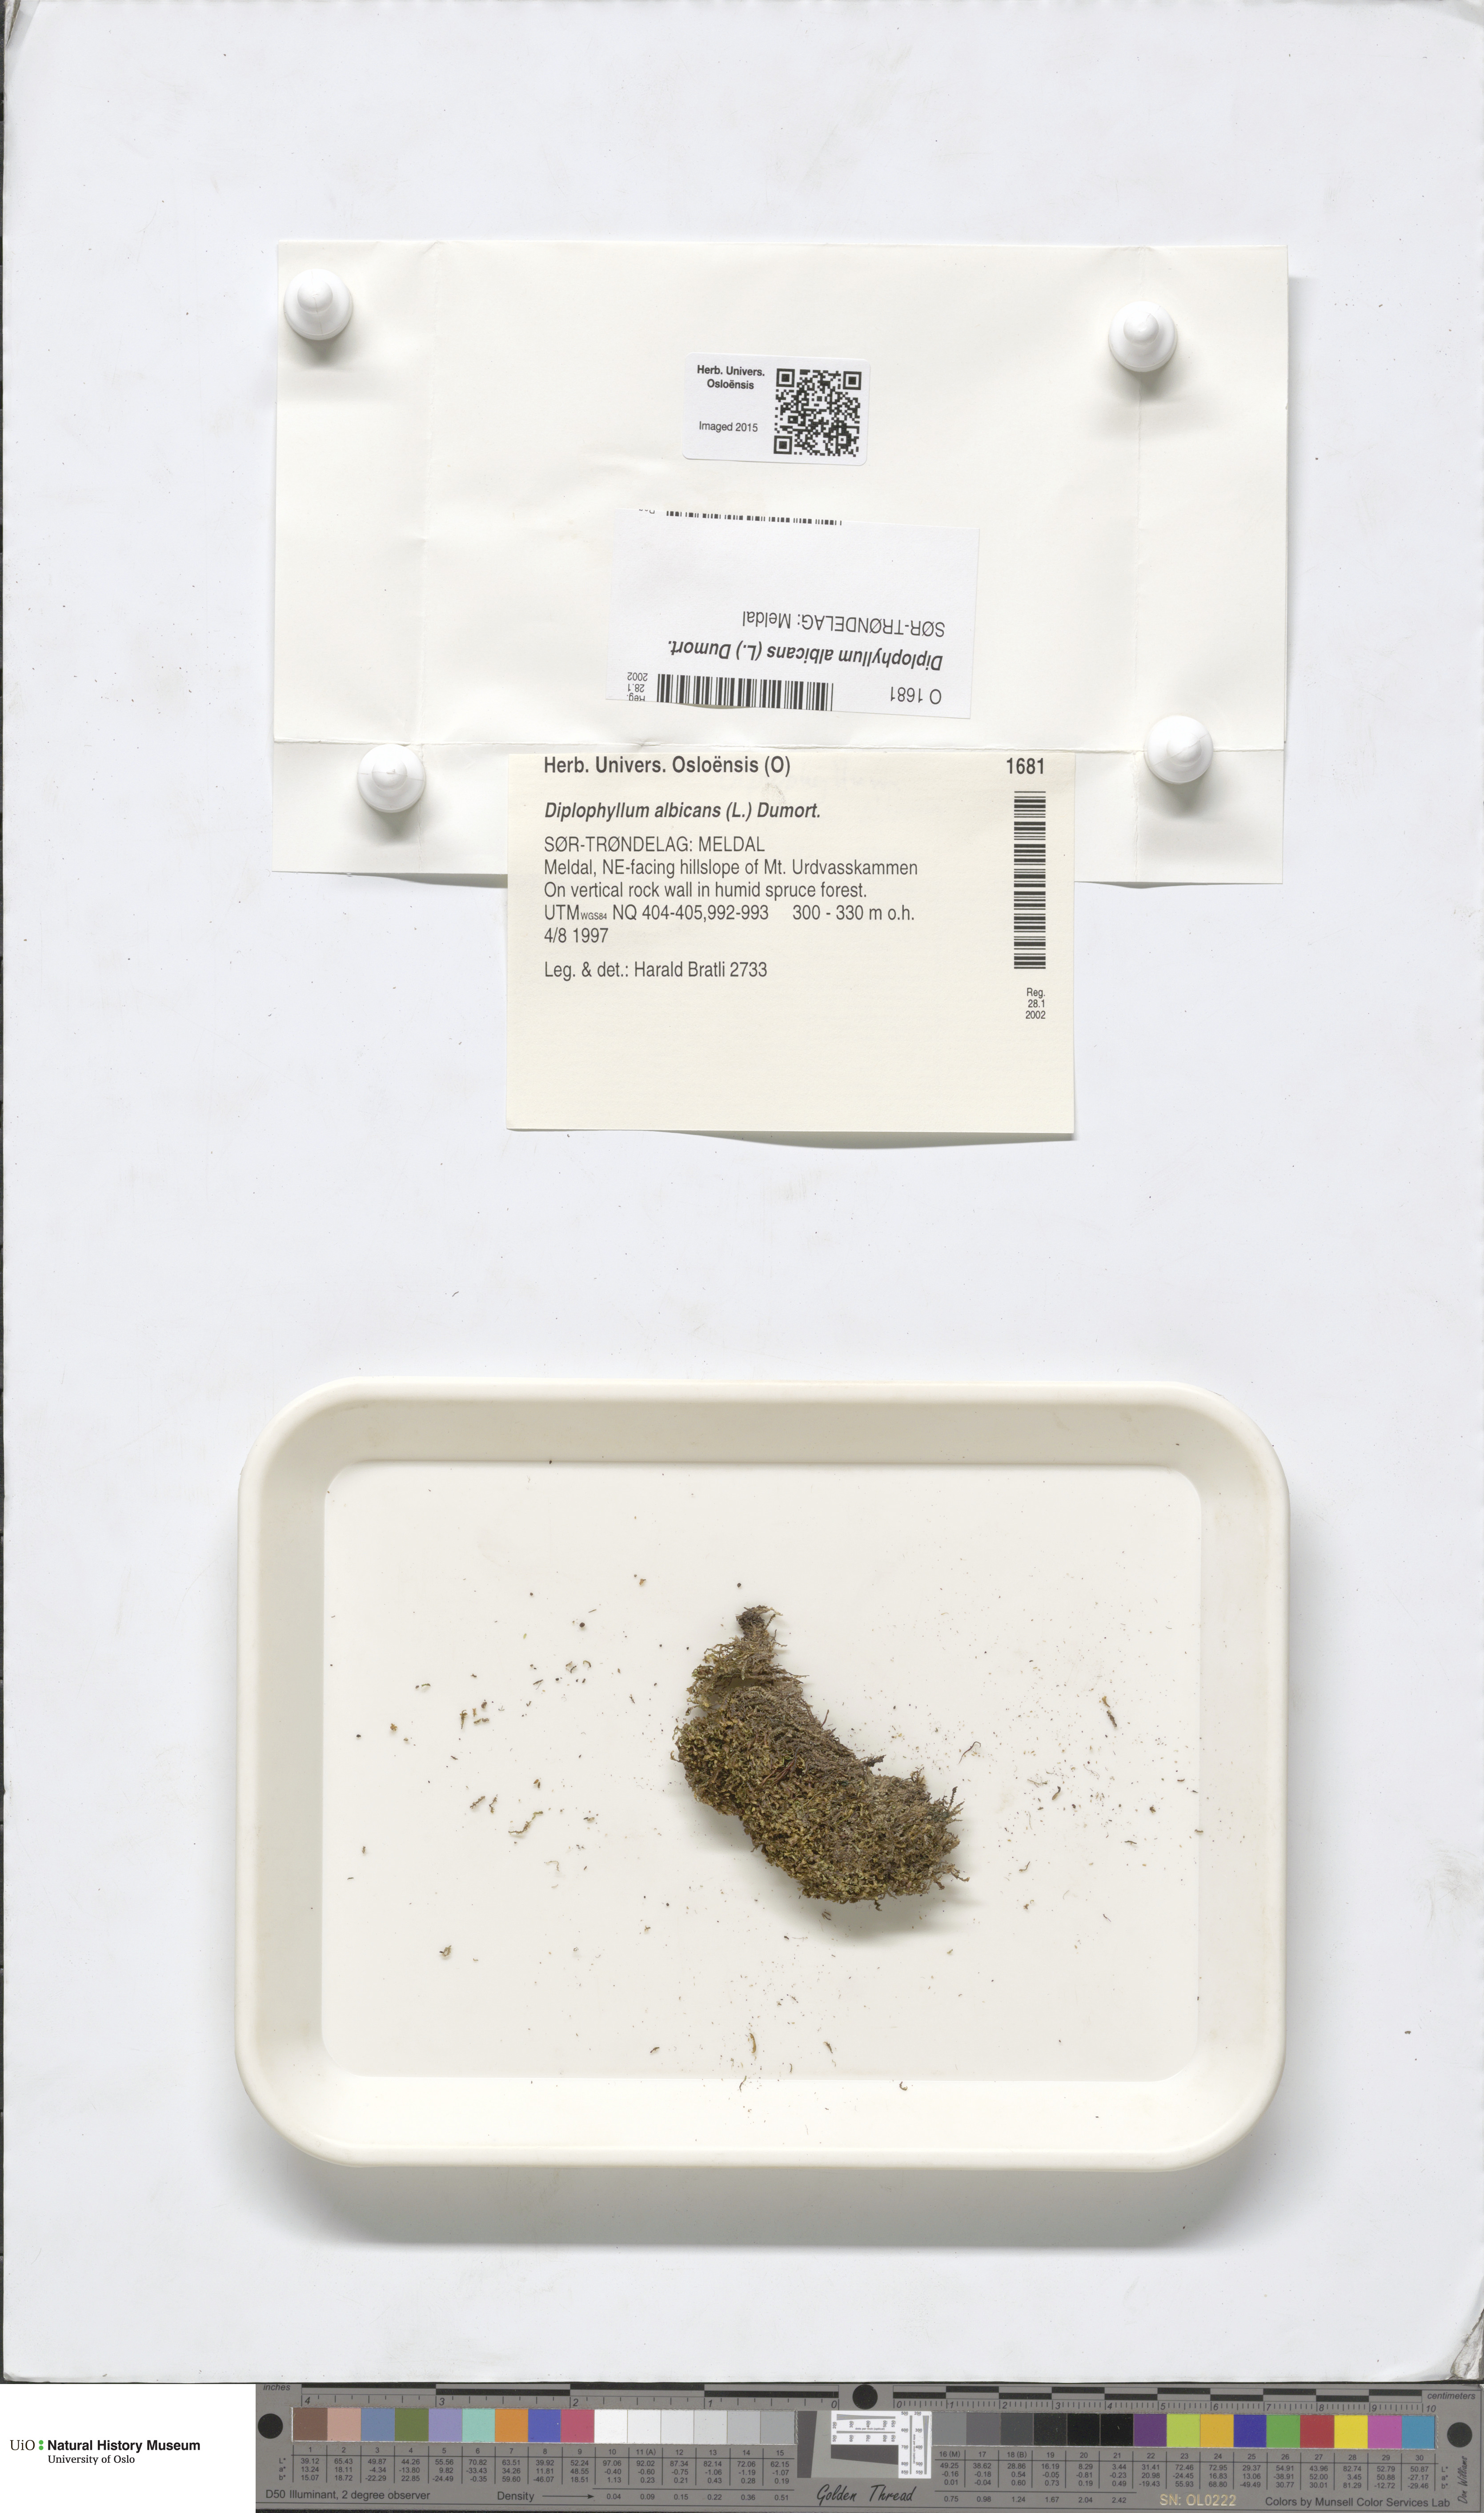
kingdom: Plantae
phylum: Marchantiophyta
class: Jungermanniopsida
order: Jungermanniales
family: Scapaniaceae
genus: Diplophyllum
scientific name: Diplophyllum albicans
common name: White earwort
